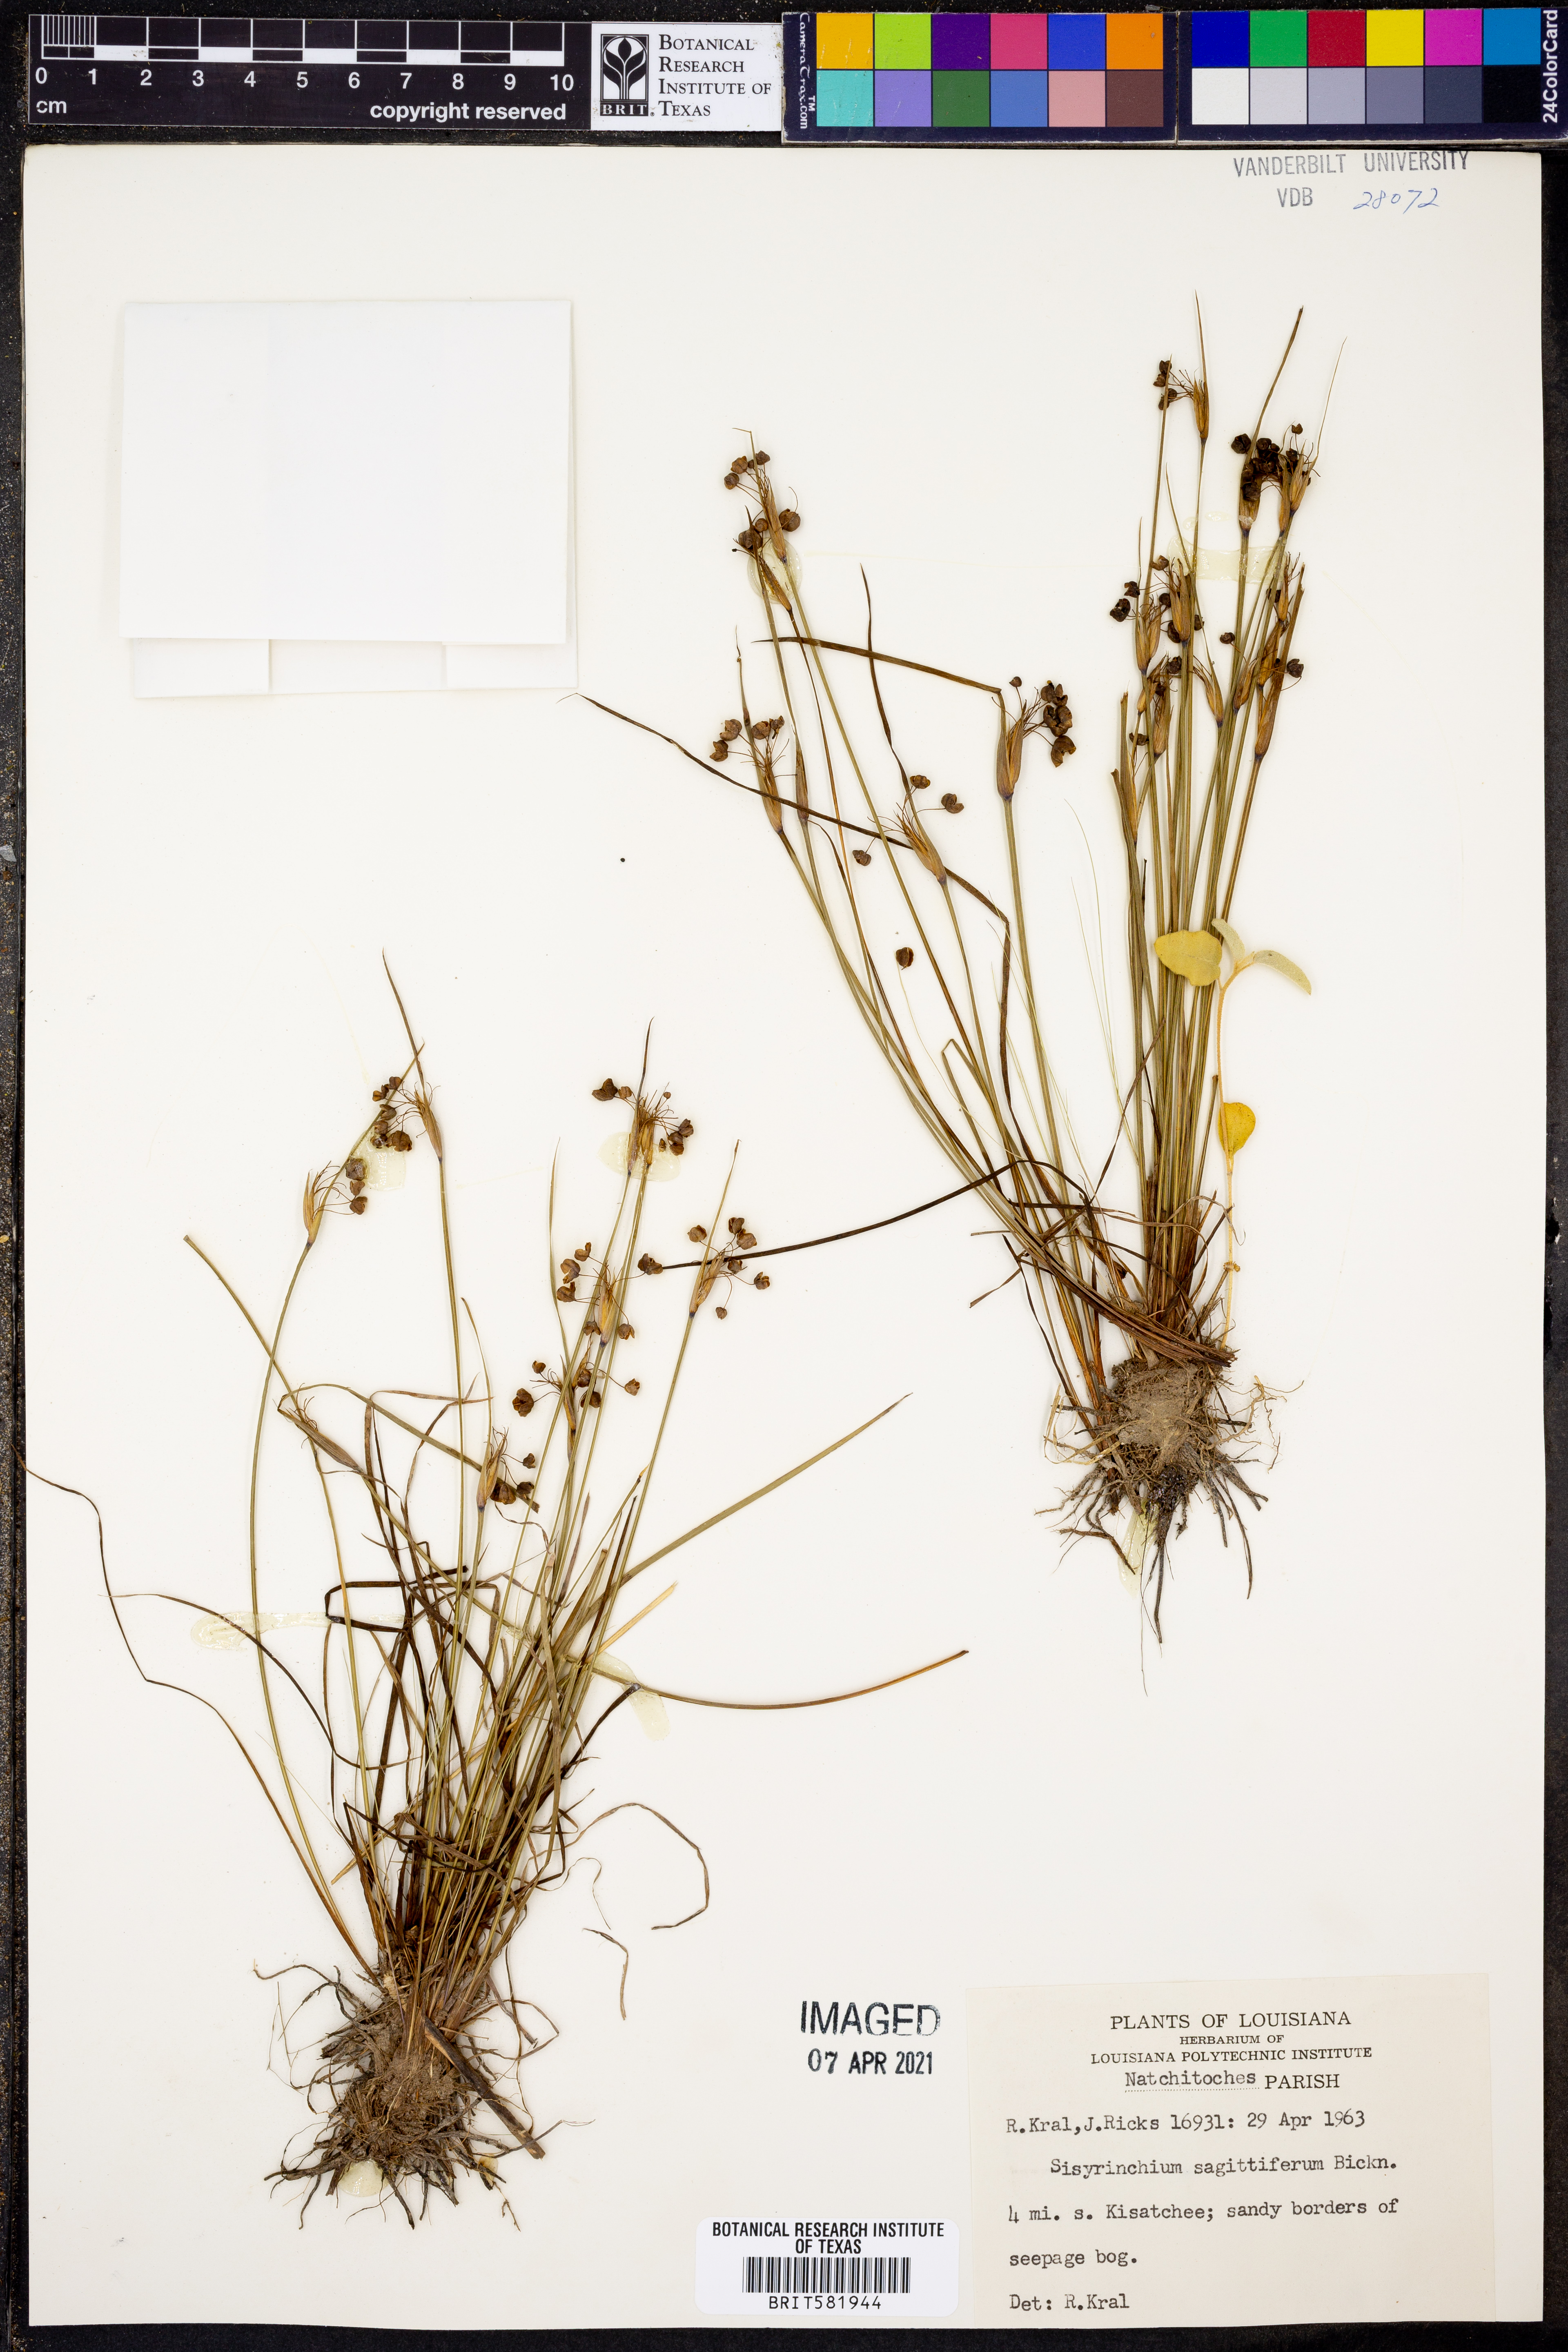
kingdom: Plantae
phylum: Tracheophyta
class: Liliopsida
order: Asparagales
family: Iridaceae
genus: Sisyrinchium
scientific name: Sisyrinchium sagittiferum
